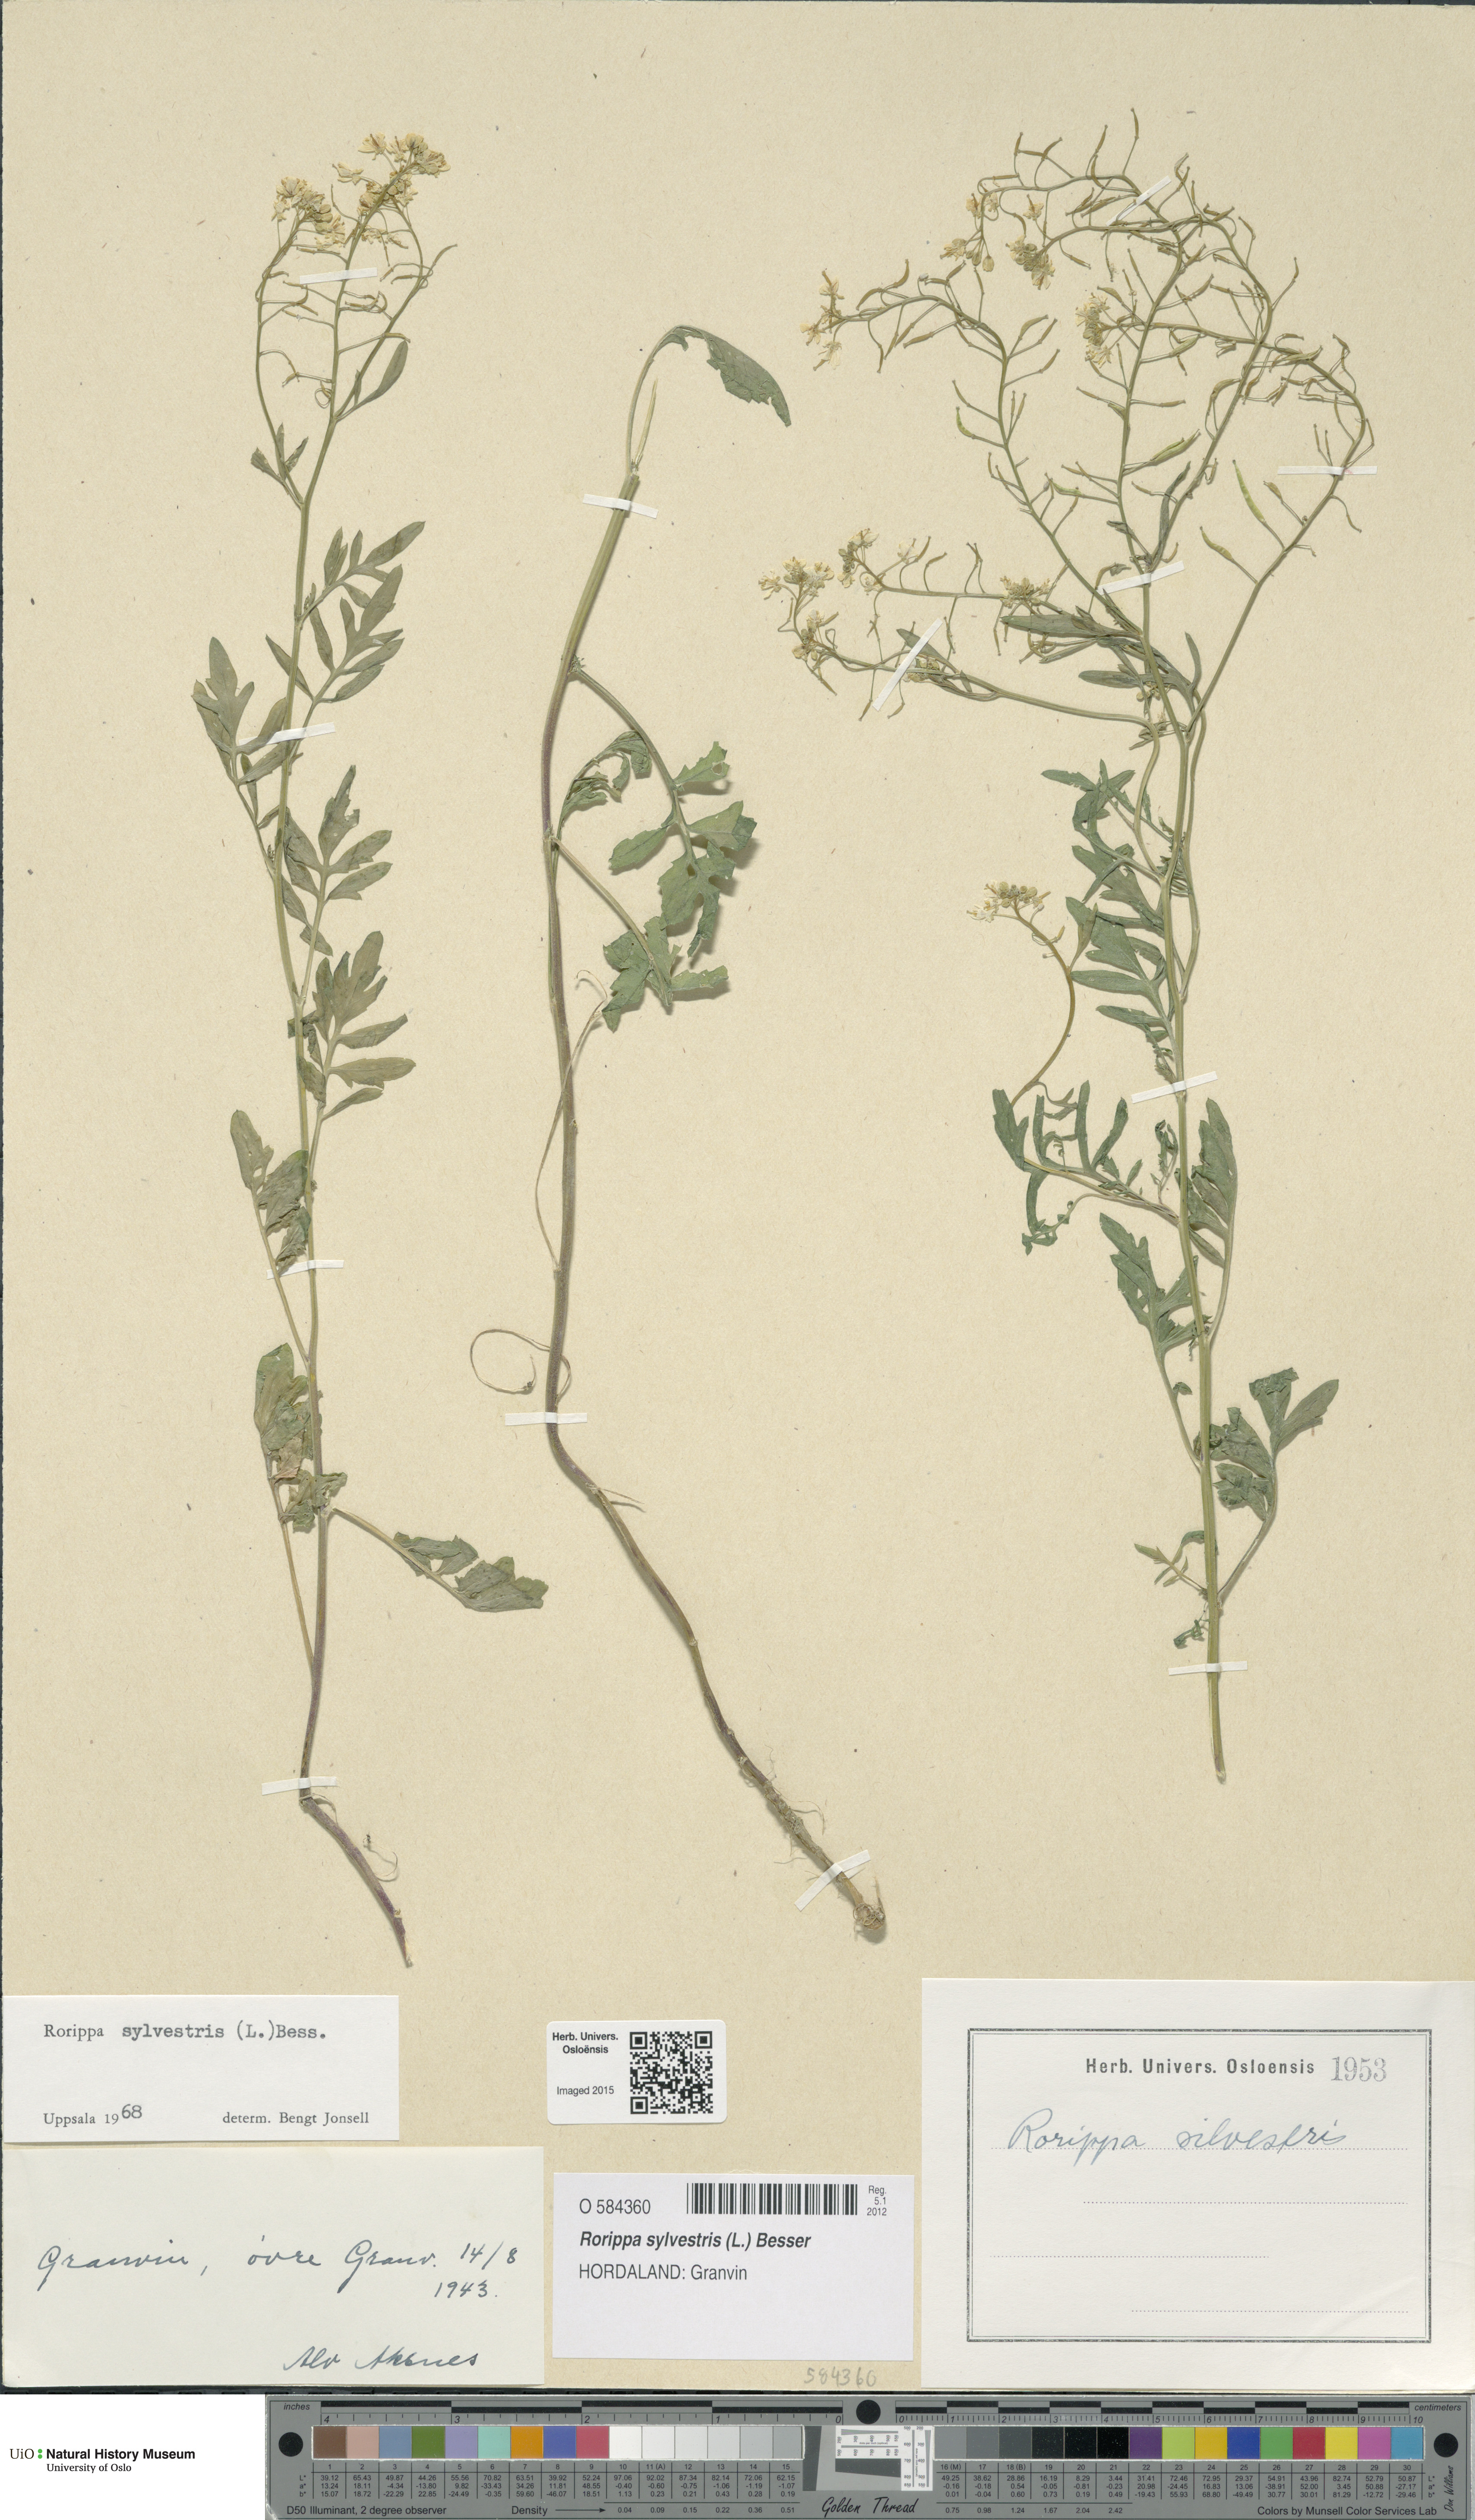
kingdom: Plantae
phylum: Tracheophyta
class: Magnoliopsida
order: Brassicales
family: Brassicaceae
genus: Rorippa
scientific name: Rorippa sylvestris
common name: Creeping yellowcress
